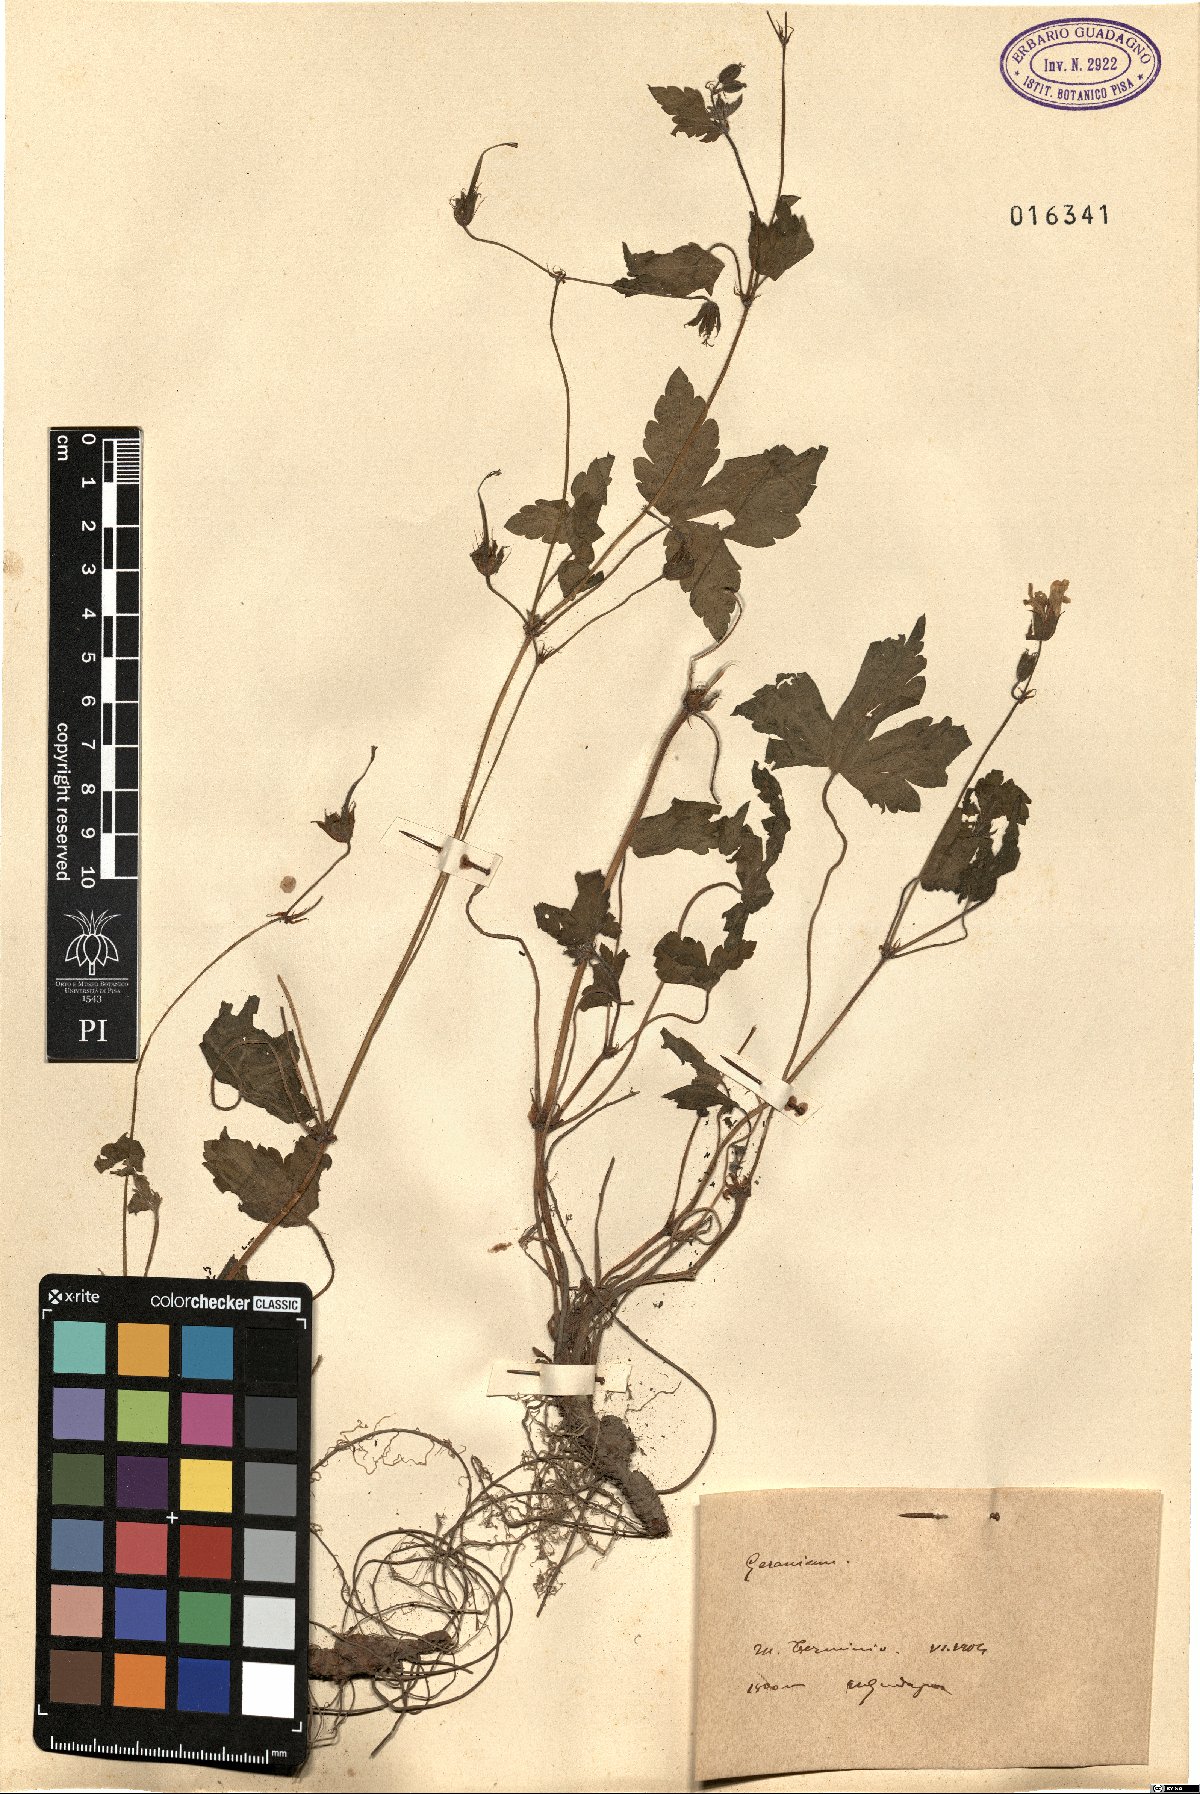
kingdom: Plantae
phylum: Tracheophyta
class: Magnoliopsida
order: Geraniales
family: Geraniaceae
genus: Geranium
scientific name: Geranium
